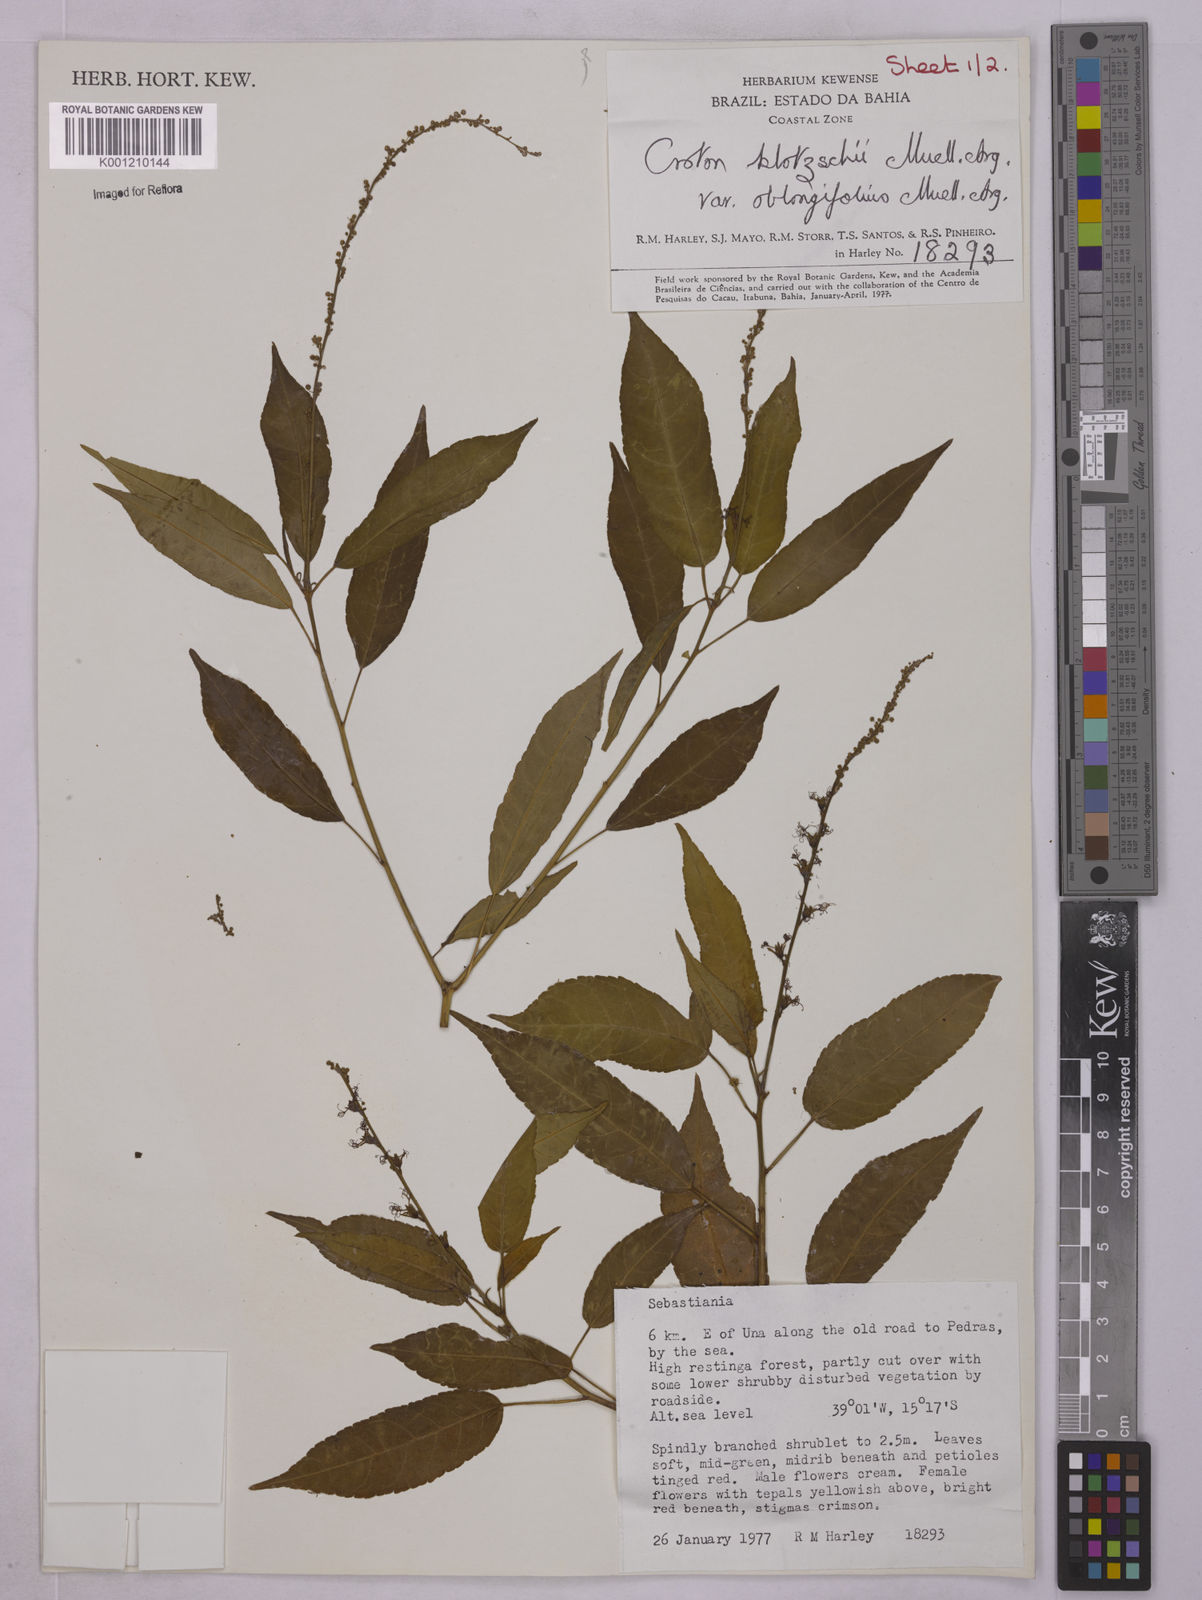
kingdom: Plantae
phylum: Tracheophyta
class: Magnoliopsida
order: Malpighiales
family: Euphorbiaceae
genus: Astraea
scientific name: Astraea macroura
